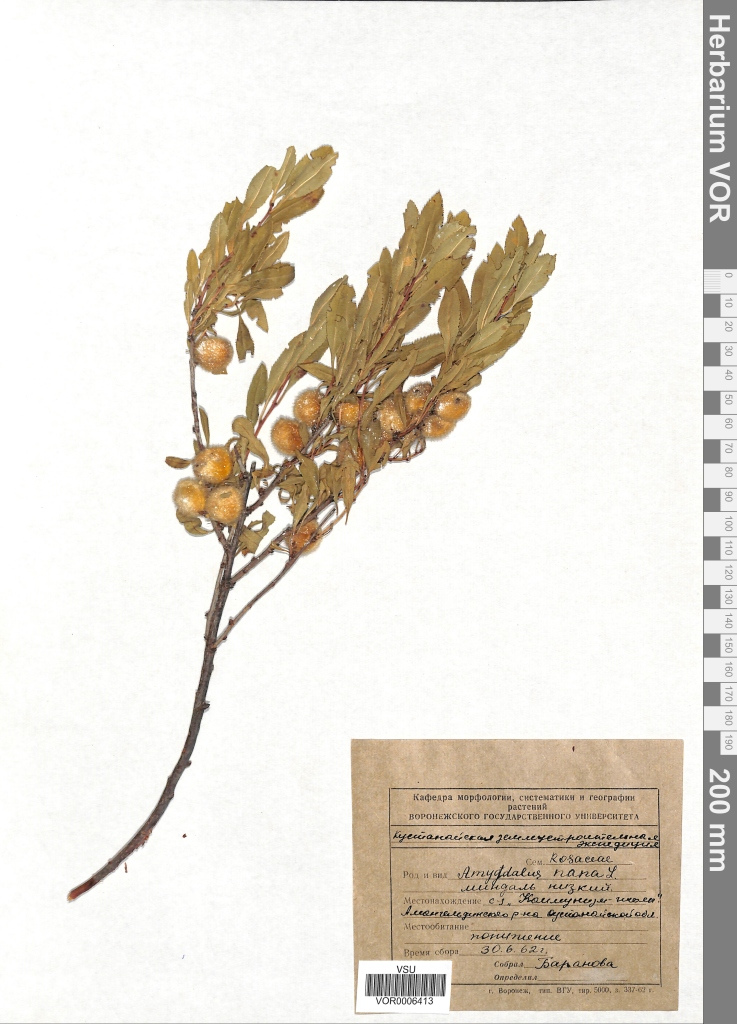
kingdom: Plantae
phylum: Tracheophyta
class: Magnoliopsida
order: Rosales
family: Rosaceae
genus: Prunus
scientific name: Prunus tenella
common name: Dwarf russian almond
